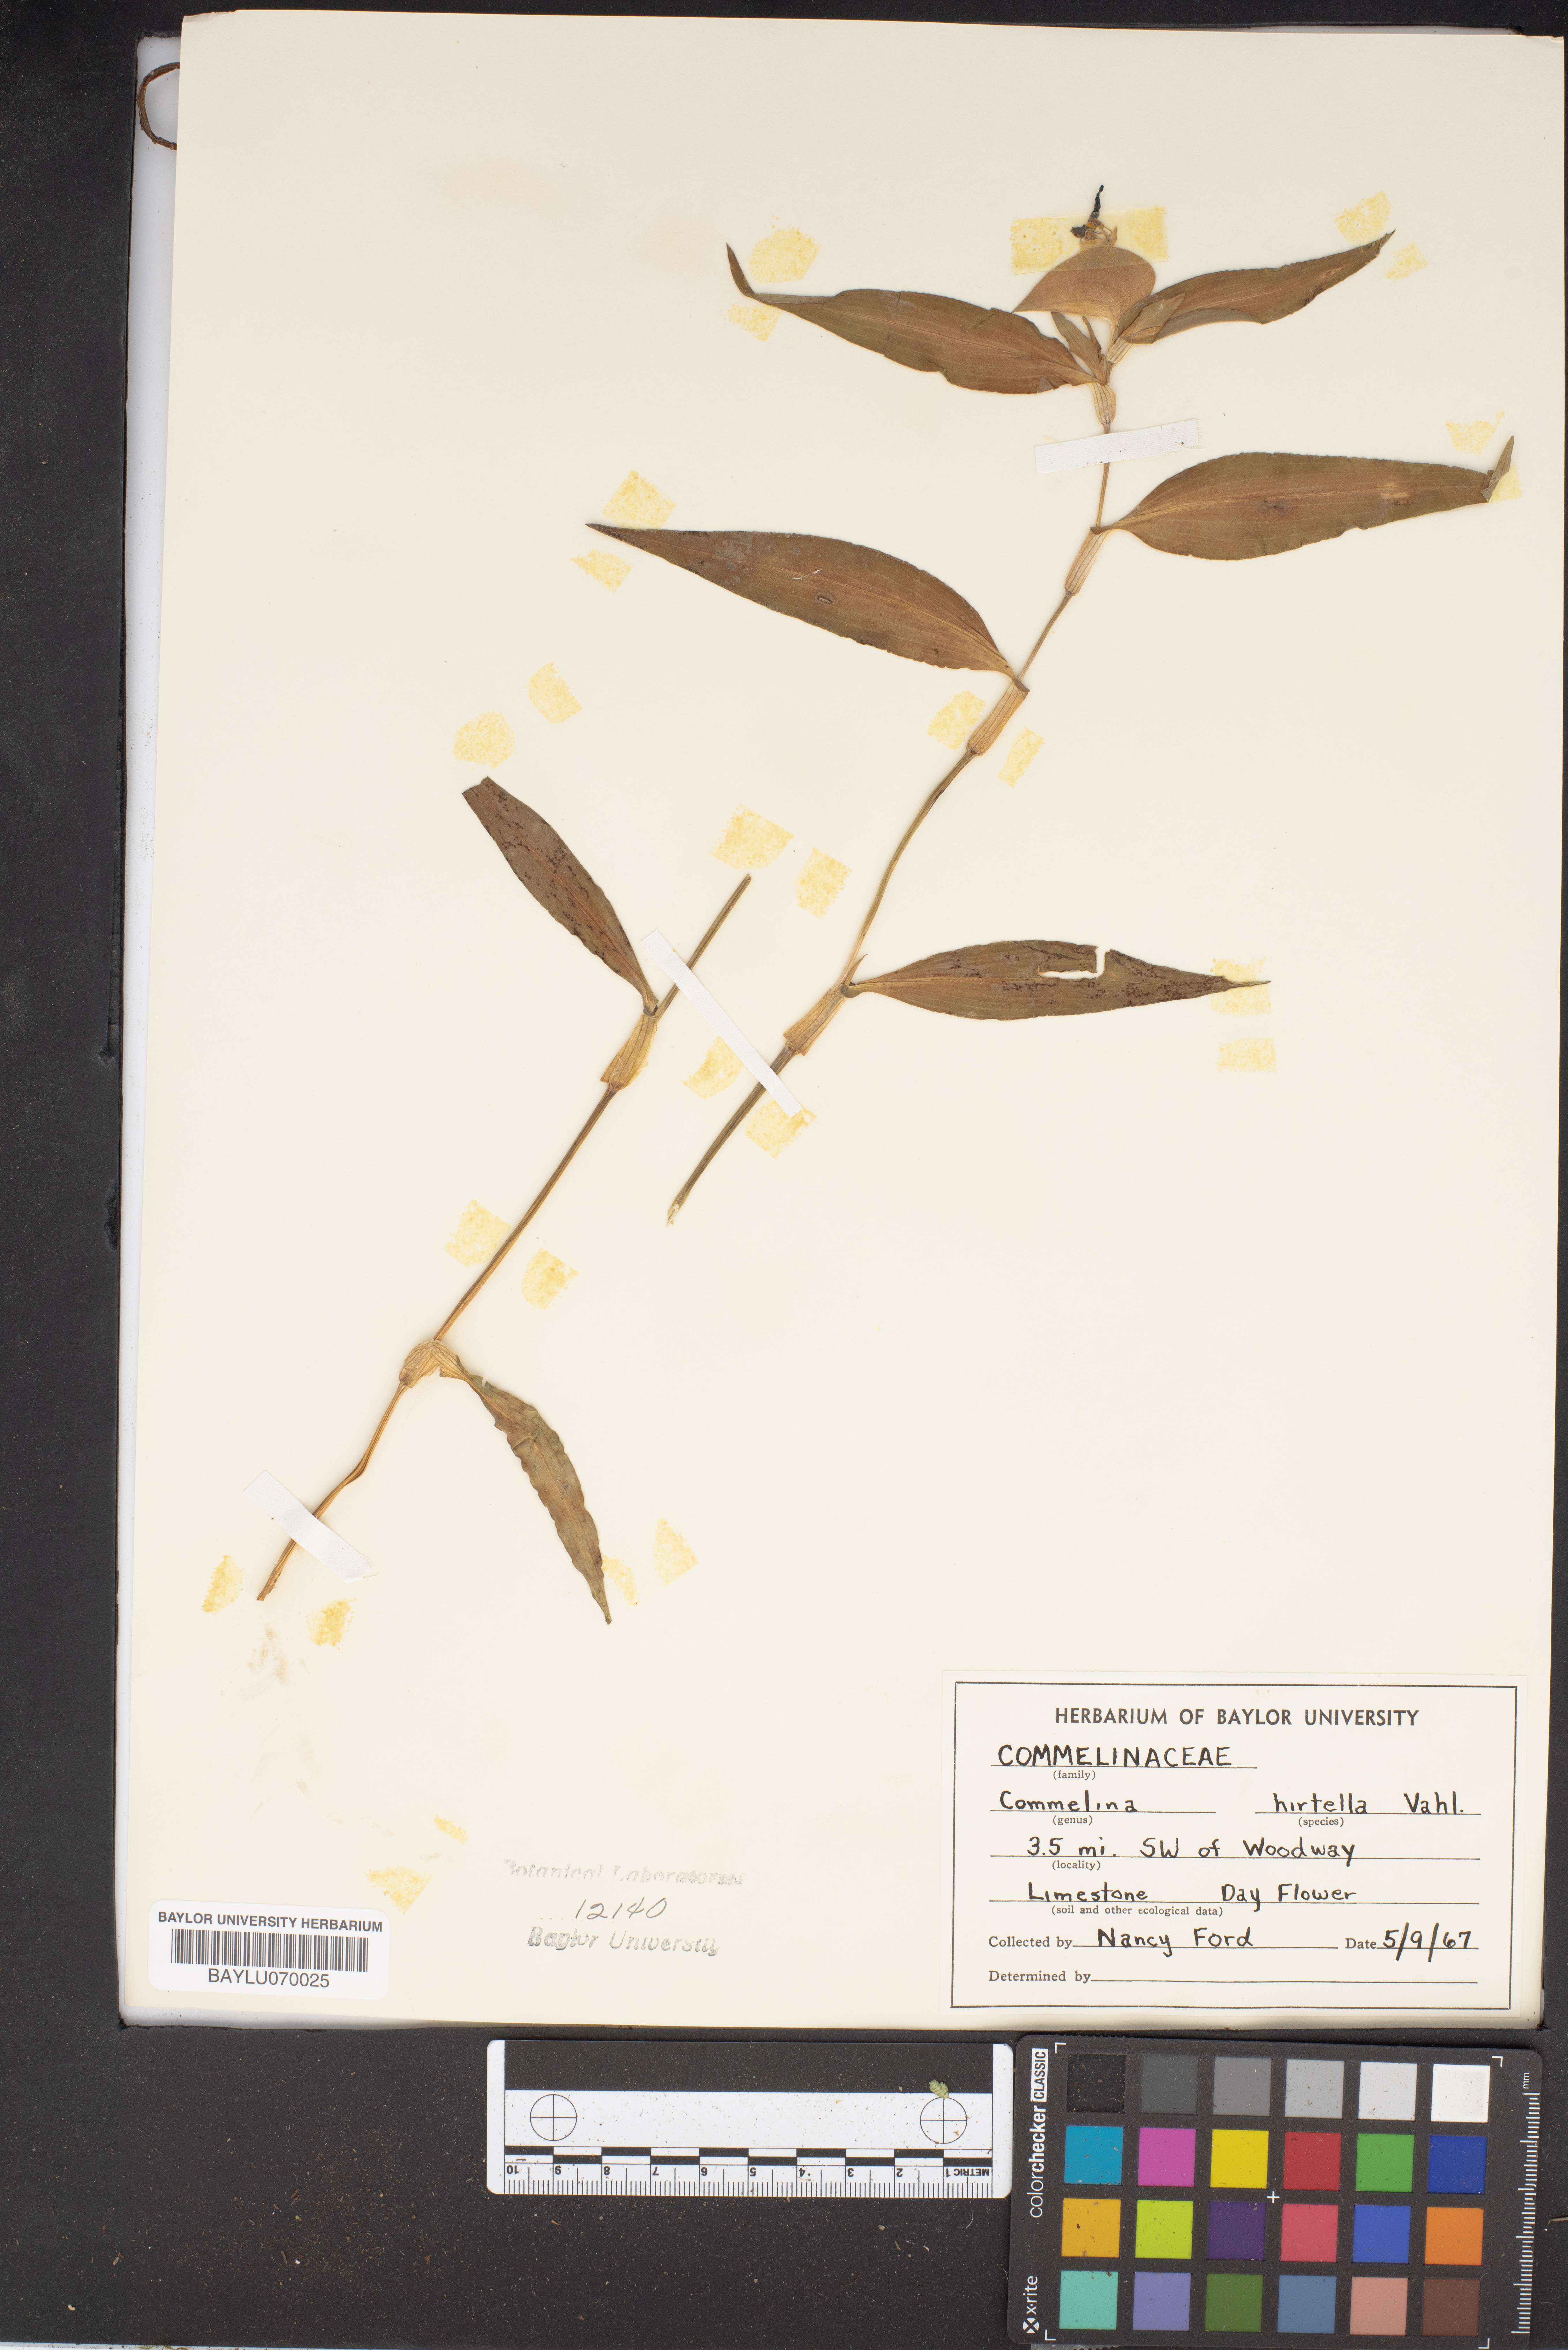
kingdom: Plantae
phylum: Tracheophyta
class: Liliopsida
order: Commelinales
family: Commelinaceae
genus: Commelina
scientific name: Commelina virginica
